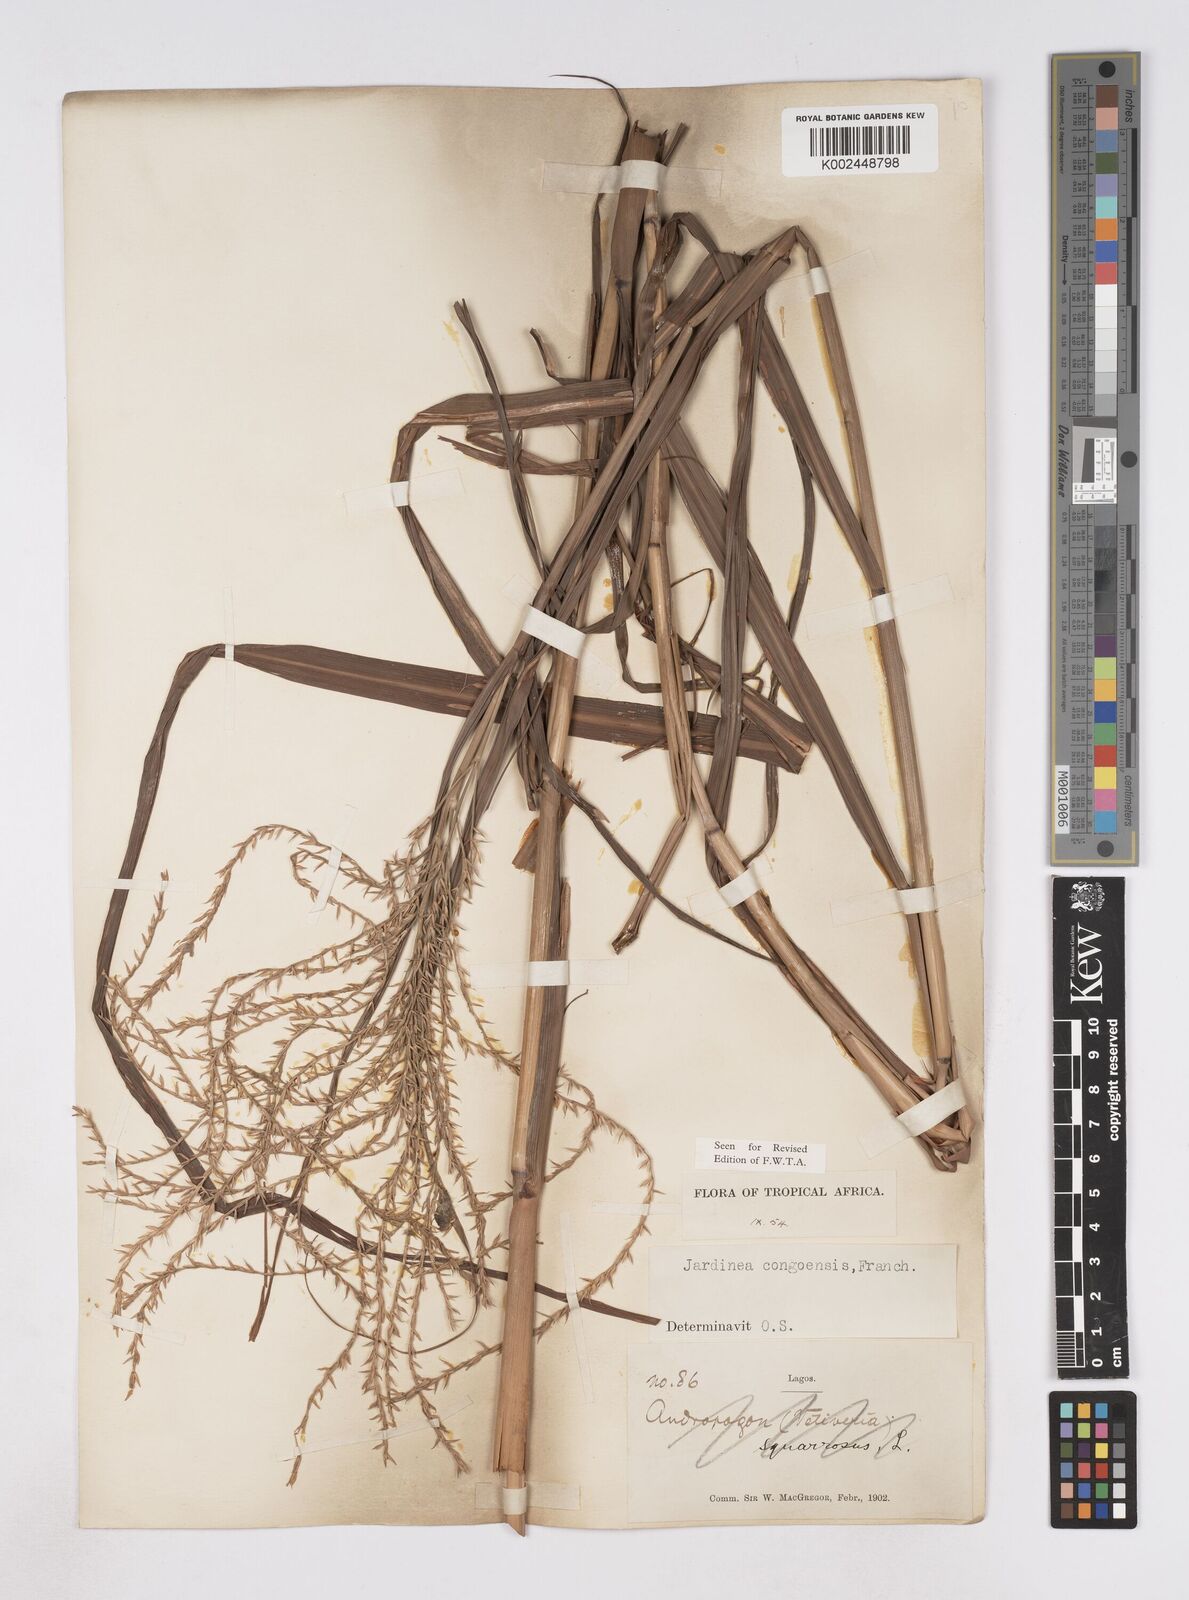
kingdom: Plantae
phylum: Tracheophyta
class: Liliopsida
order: Poales
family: Poaceae
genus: Phacelurus
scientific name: Phacelurus gabonensis
